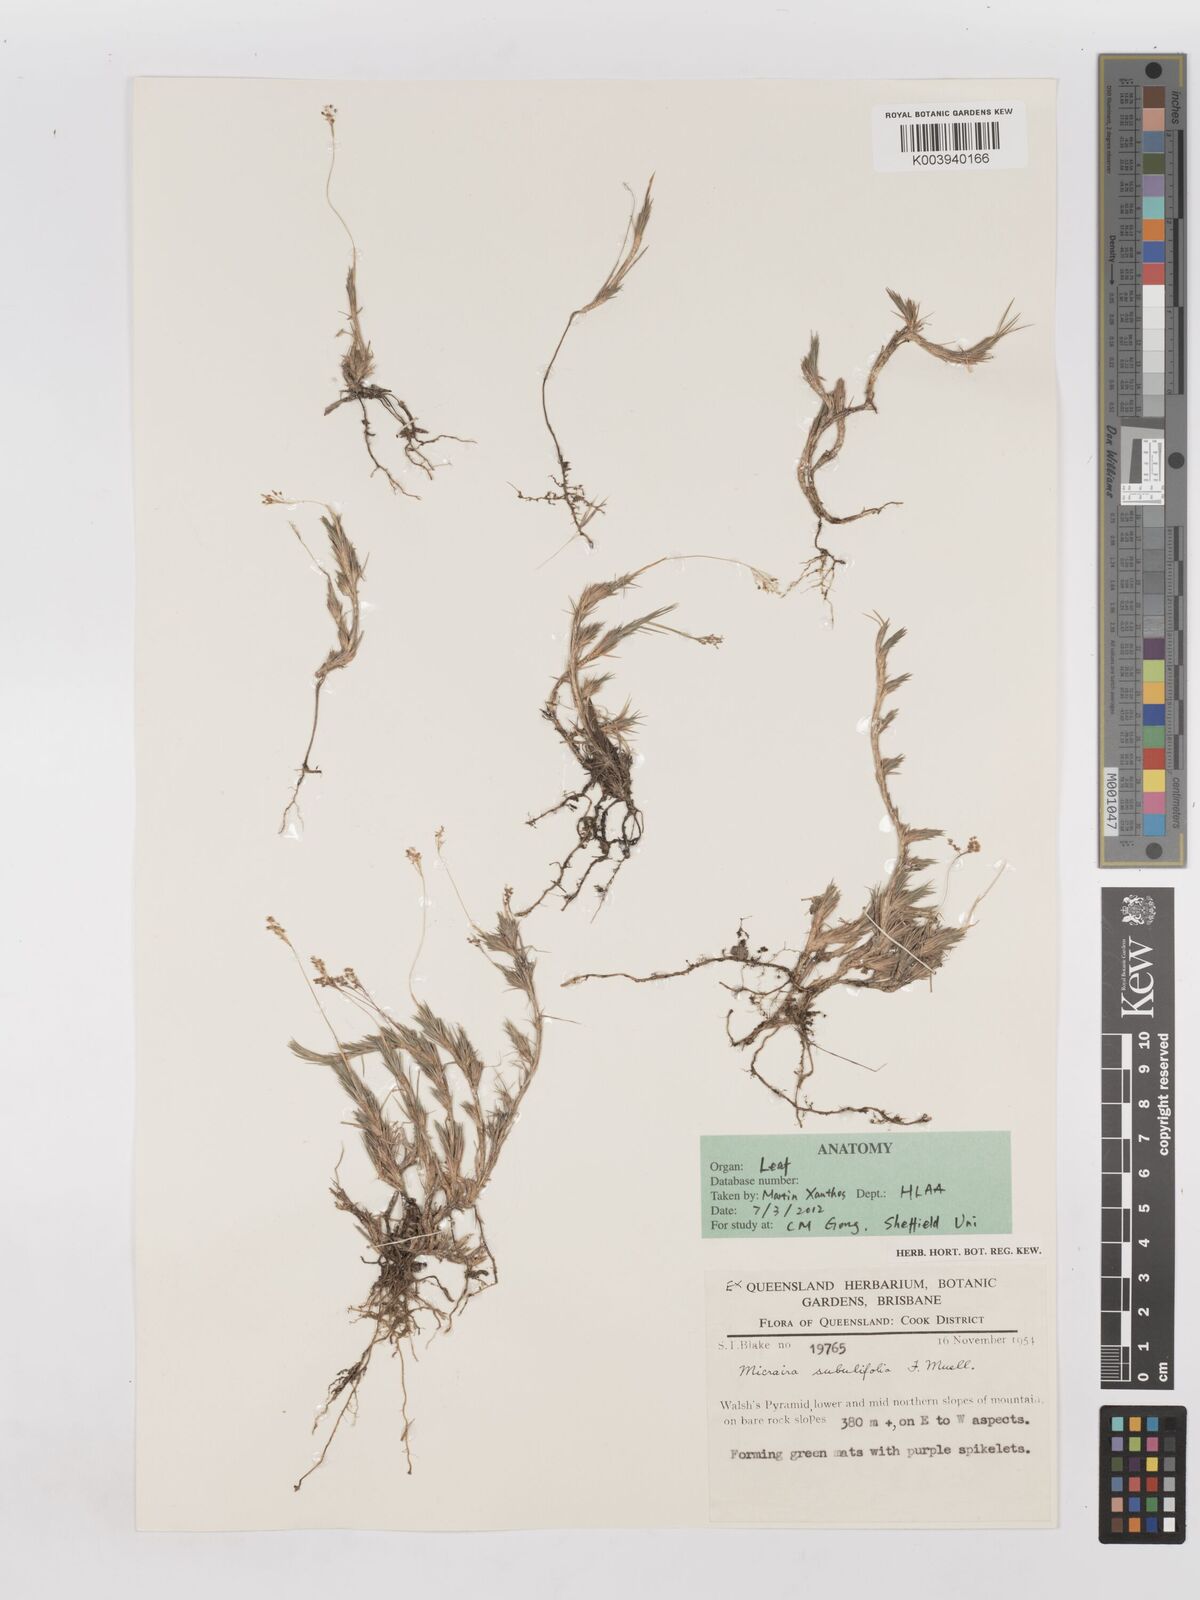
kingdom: Plantae
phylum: Tracheophyta
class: Liliopsida
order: Poales
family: Poaceae
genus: Micraira
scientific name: Micraira subulifolia
